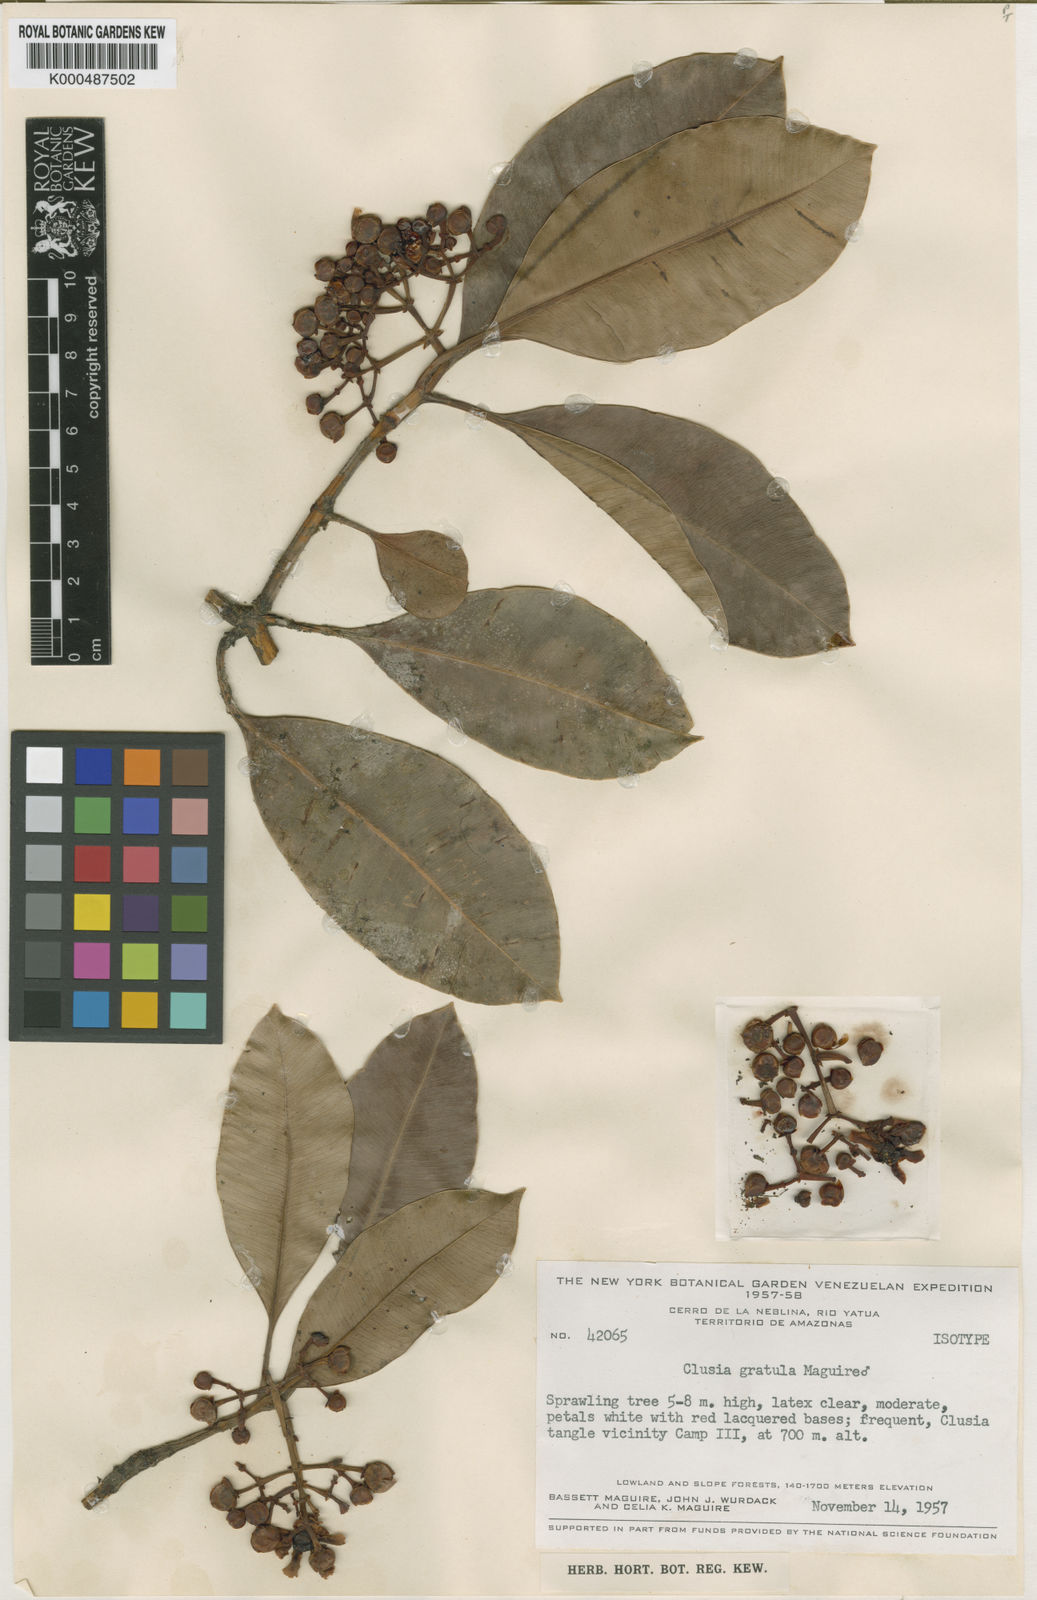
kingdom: Plantae
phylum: Tracheophyta
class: Magnoliopsida
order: Malpighiales
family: Clusiaceae
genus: Clusia
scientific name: Clusia gratula
